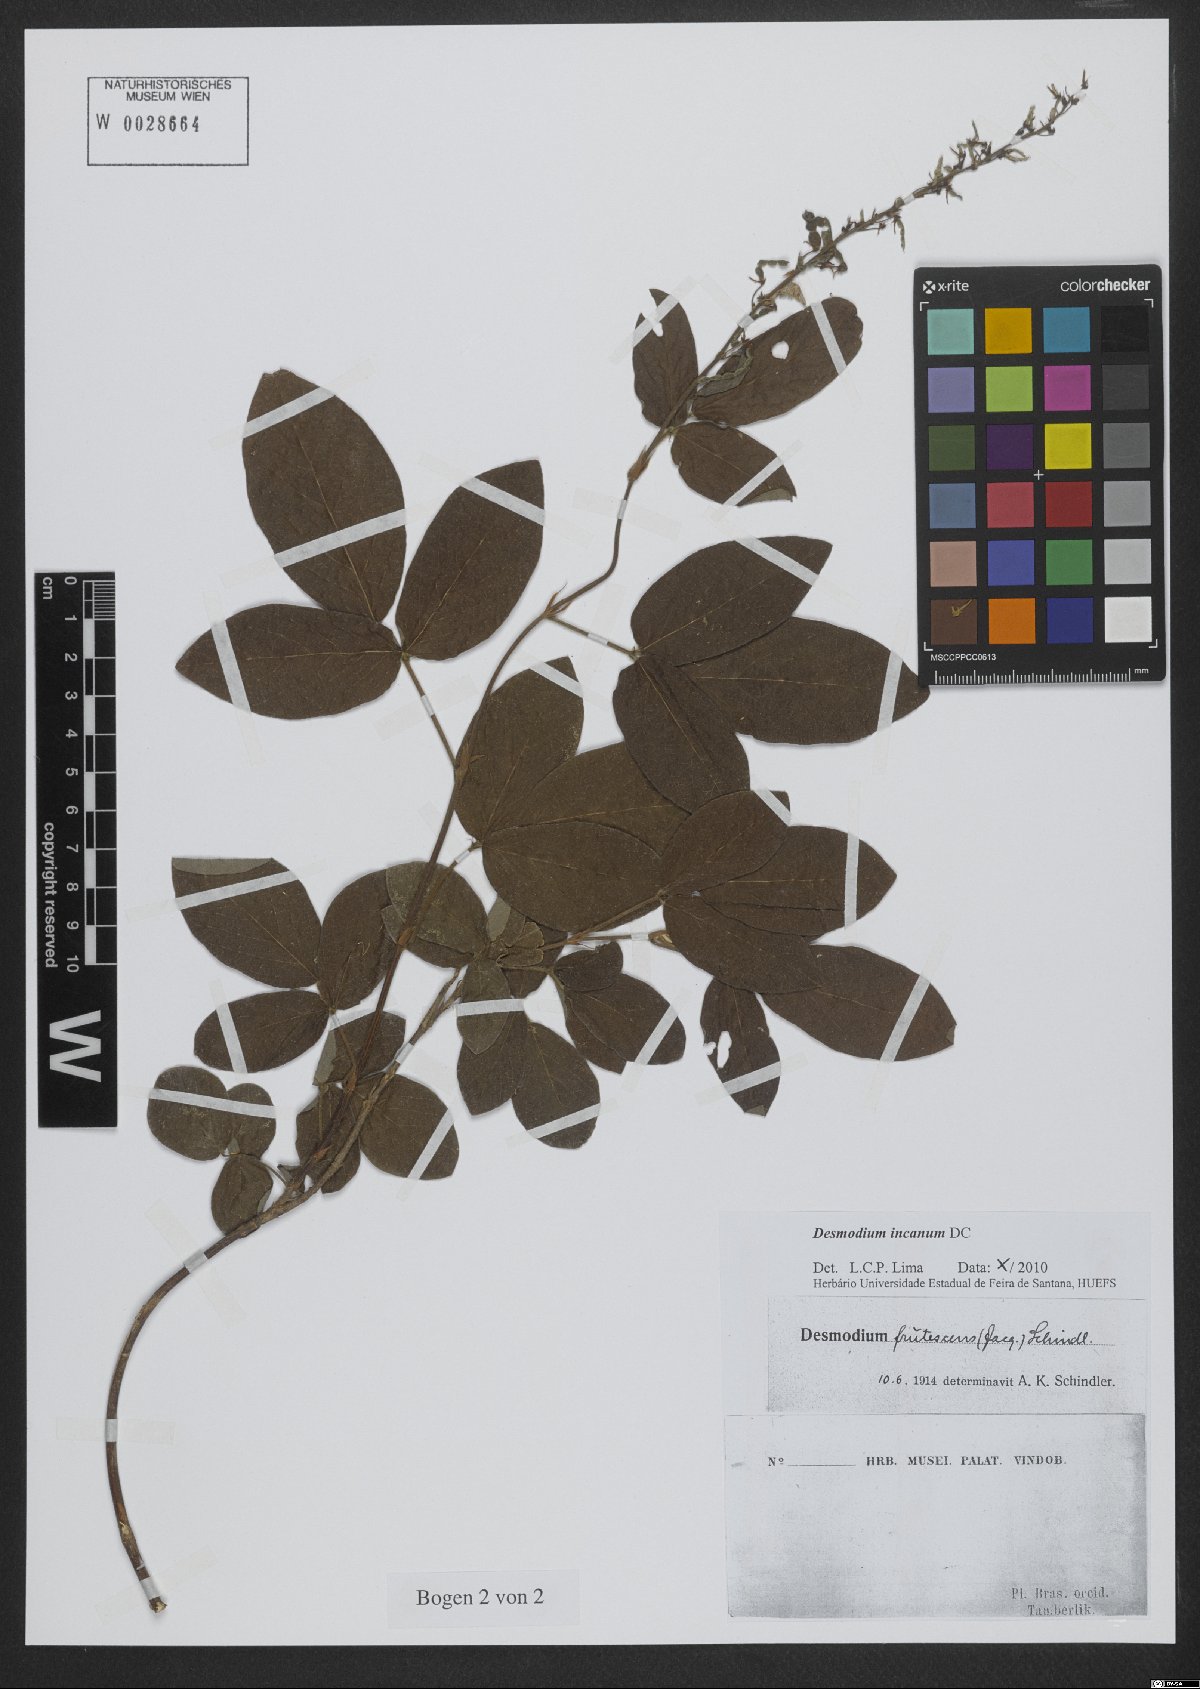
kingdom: Plantae
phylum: Tracheophyta
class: Magnoliopsida
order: Fabales
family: Fabaceae
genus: Desmodium
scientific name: Desmodium incanum
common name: Tickclover
